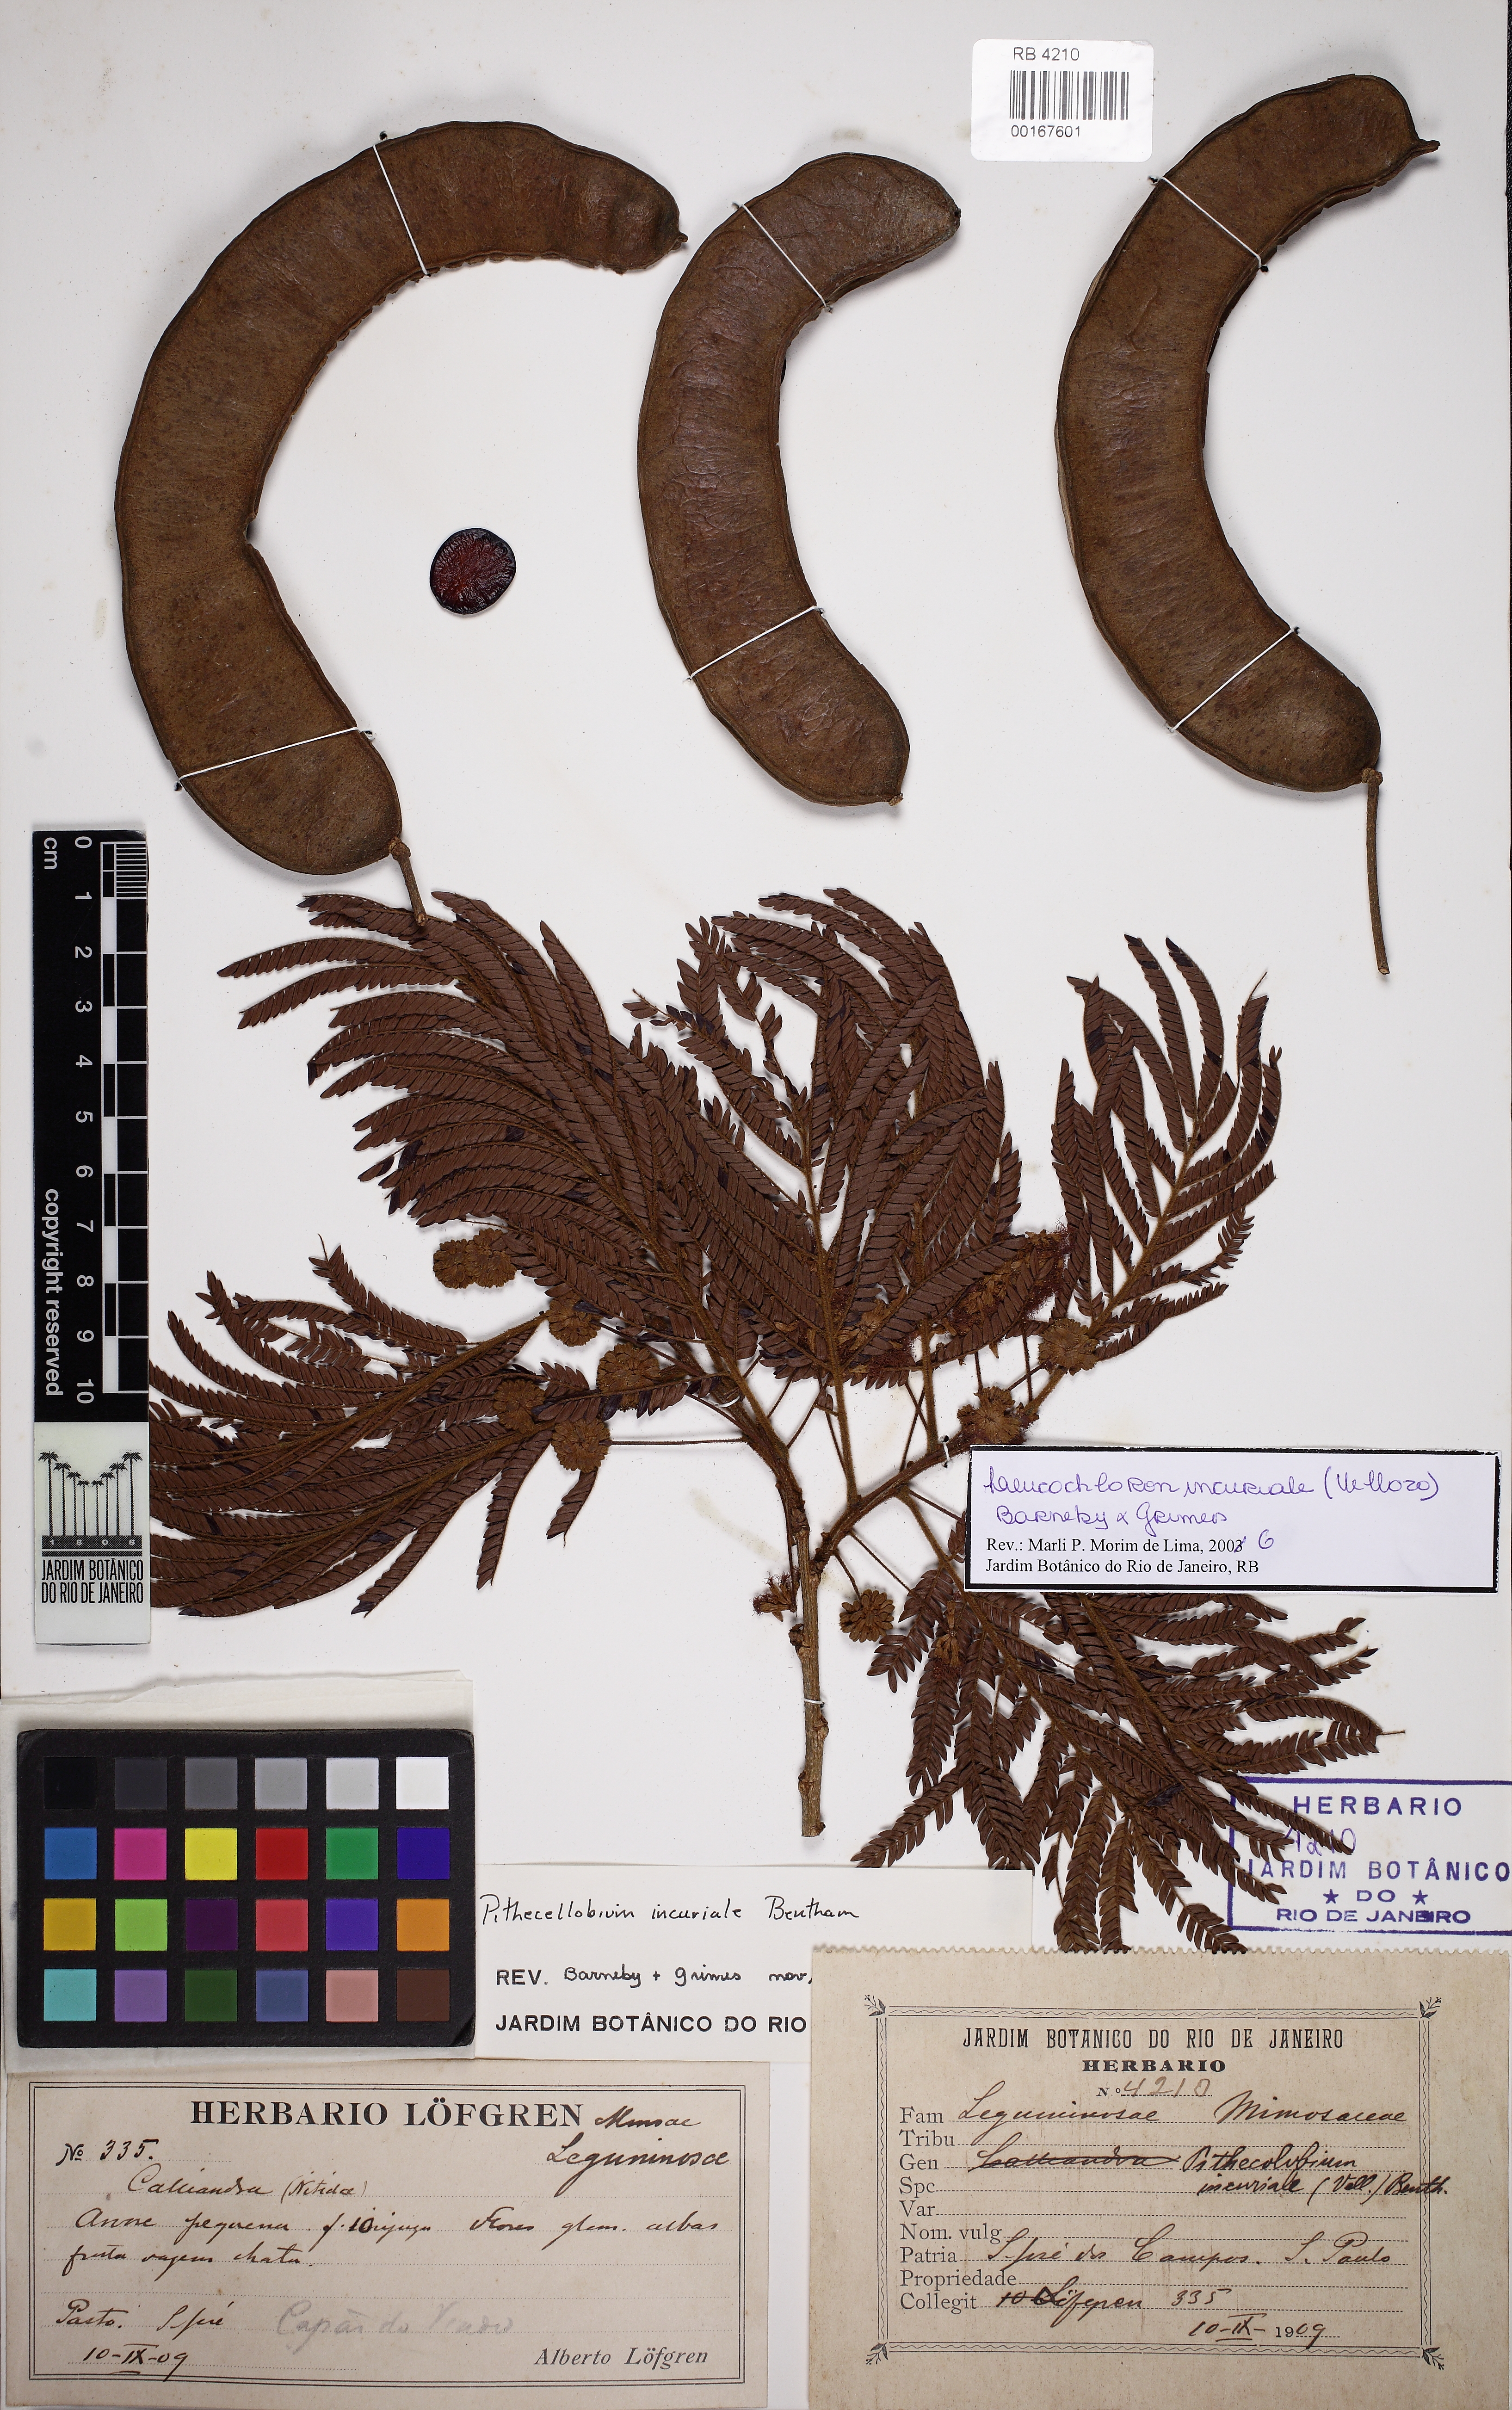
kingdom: Plantae
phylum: Tracheophyta
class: Magnoliopsida
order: Fabales
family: Fabaceae
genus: Leucochloron
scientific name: Leucochloron incuriale
